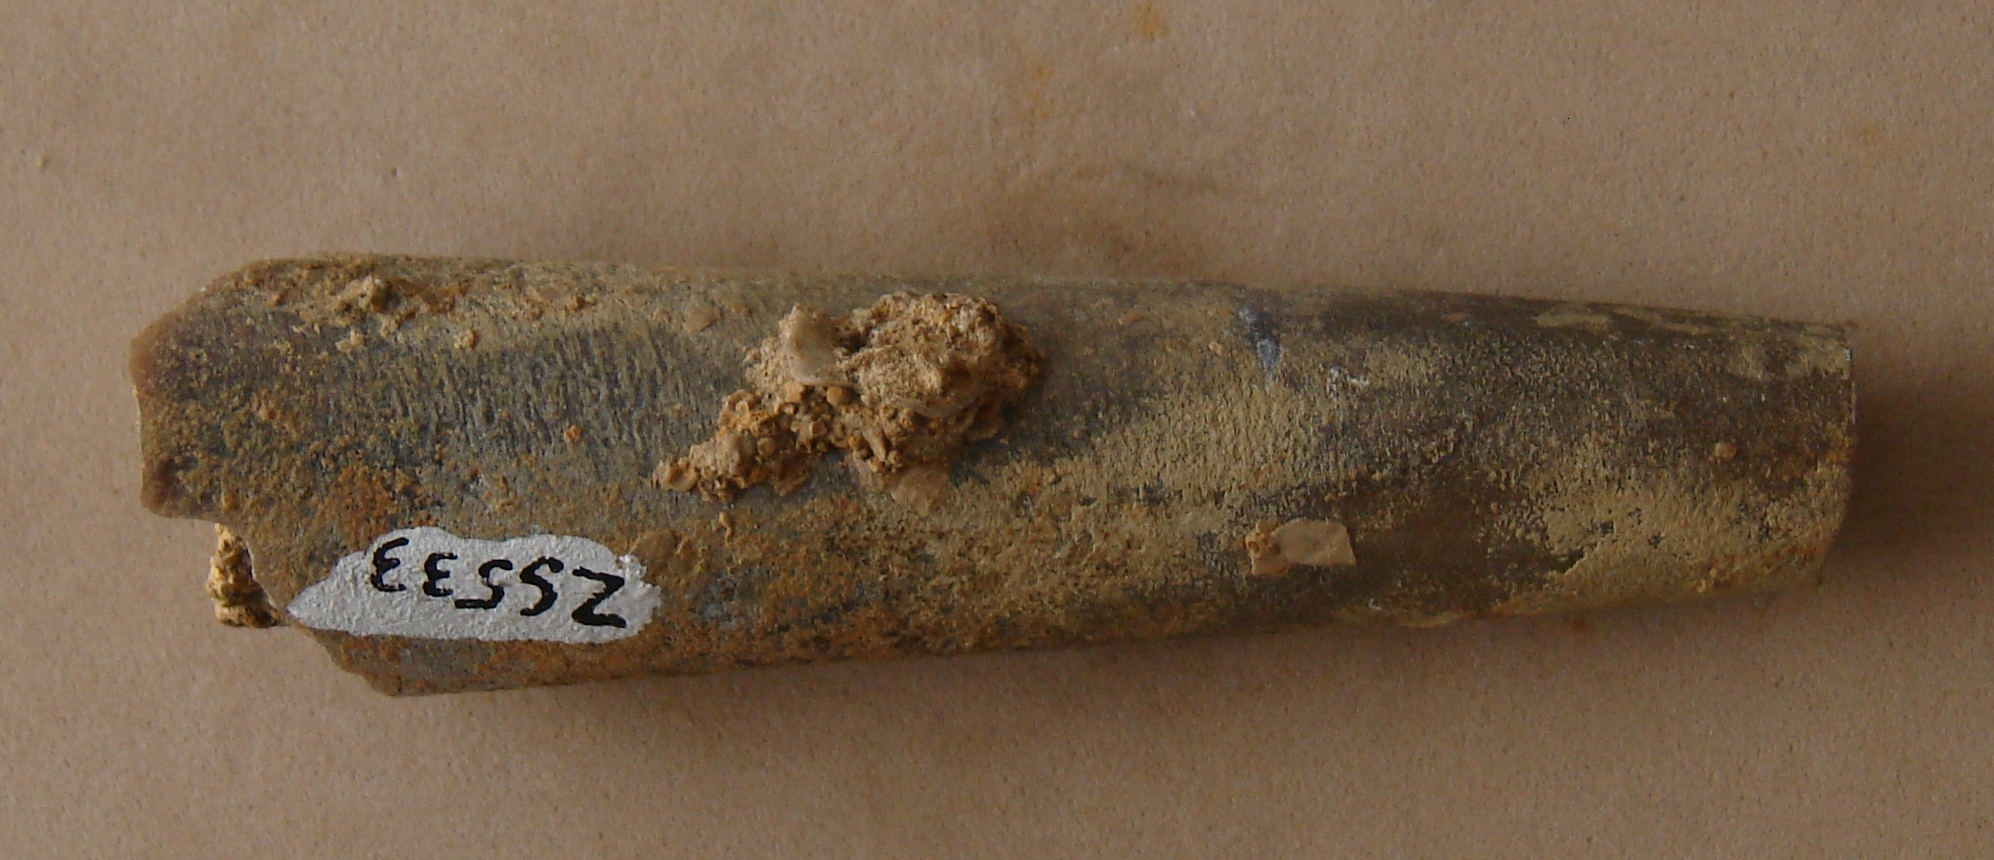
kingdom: Animalia
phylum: Mollusca
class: Cephalopoda
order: Belemnitida
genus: Eocylindroteuthis
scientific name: Eocylindroteuthis
